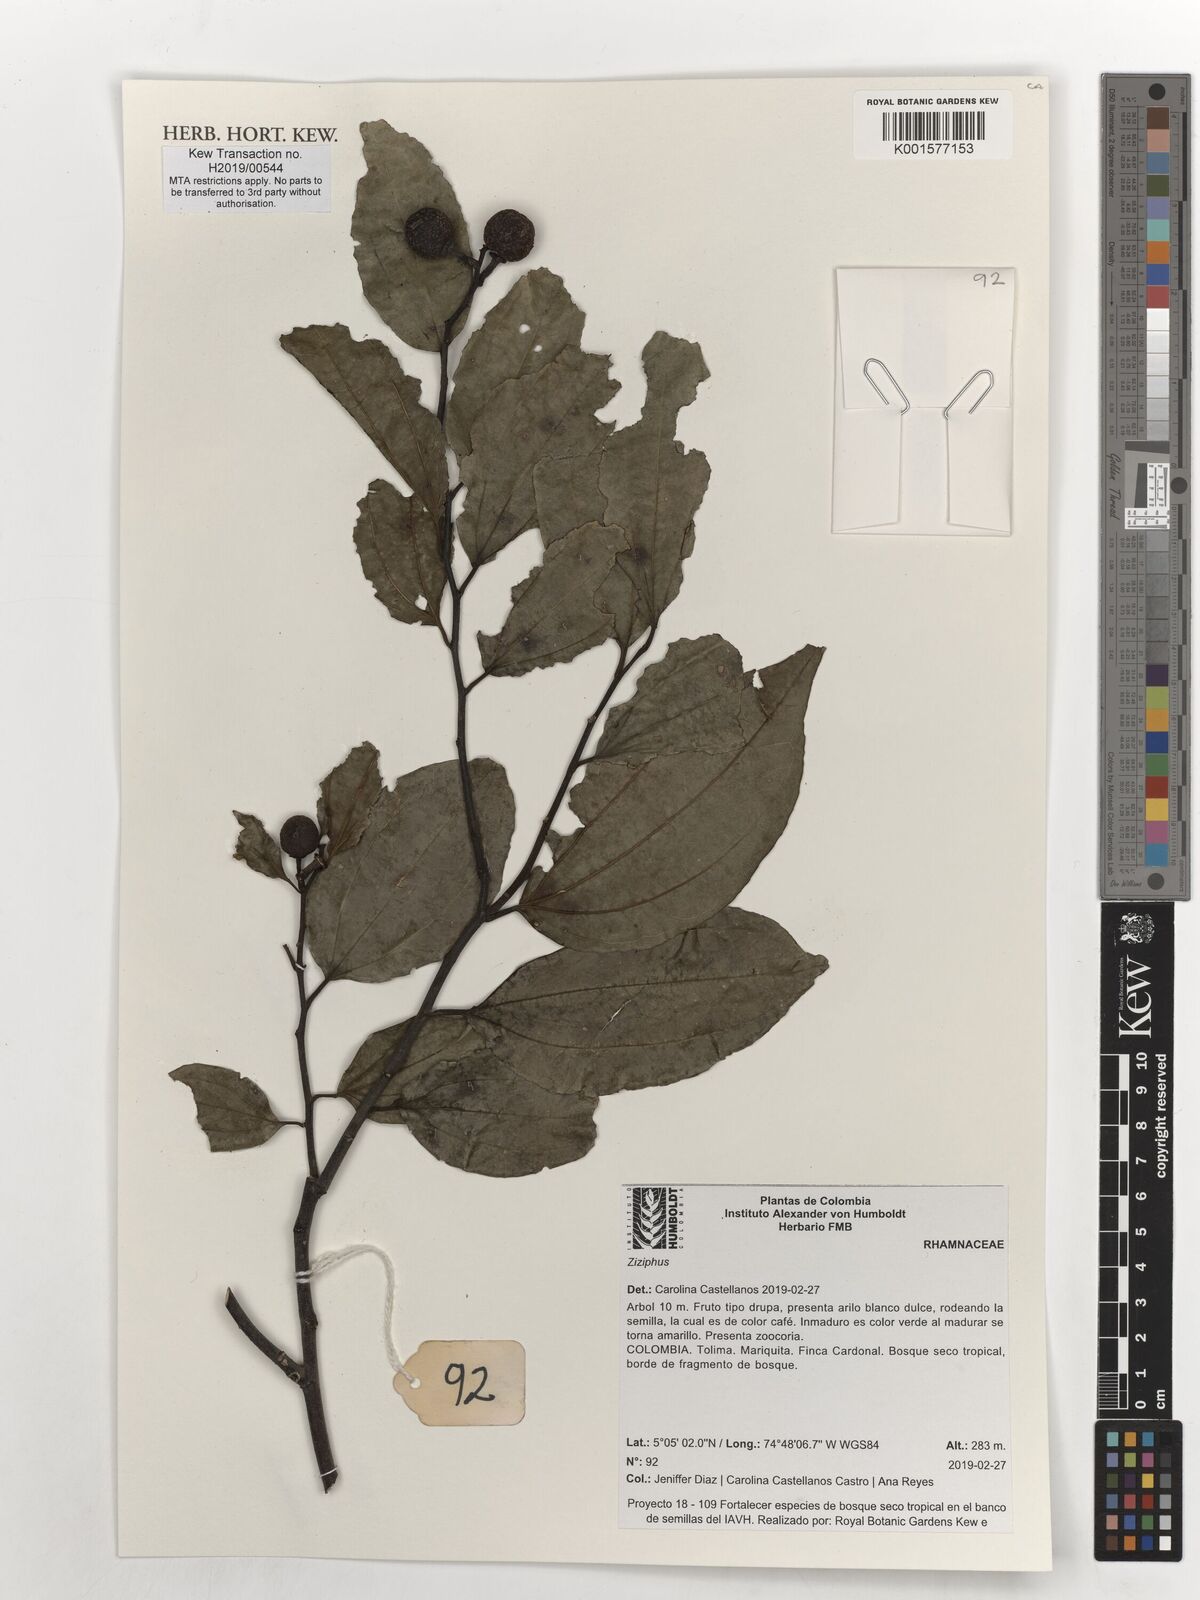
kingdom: Plantae
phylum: Tracheophyta
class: Magnoliopsida
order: Rosales
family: Rhamnaceae
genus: Ziziphus
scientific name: Ziziphus
